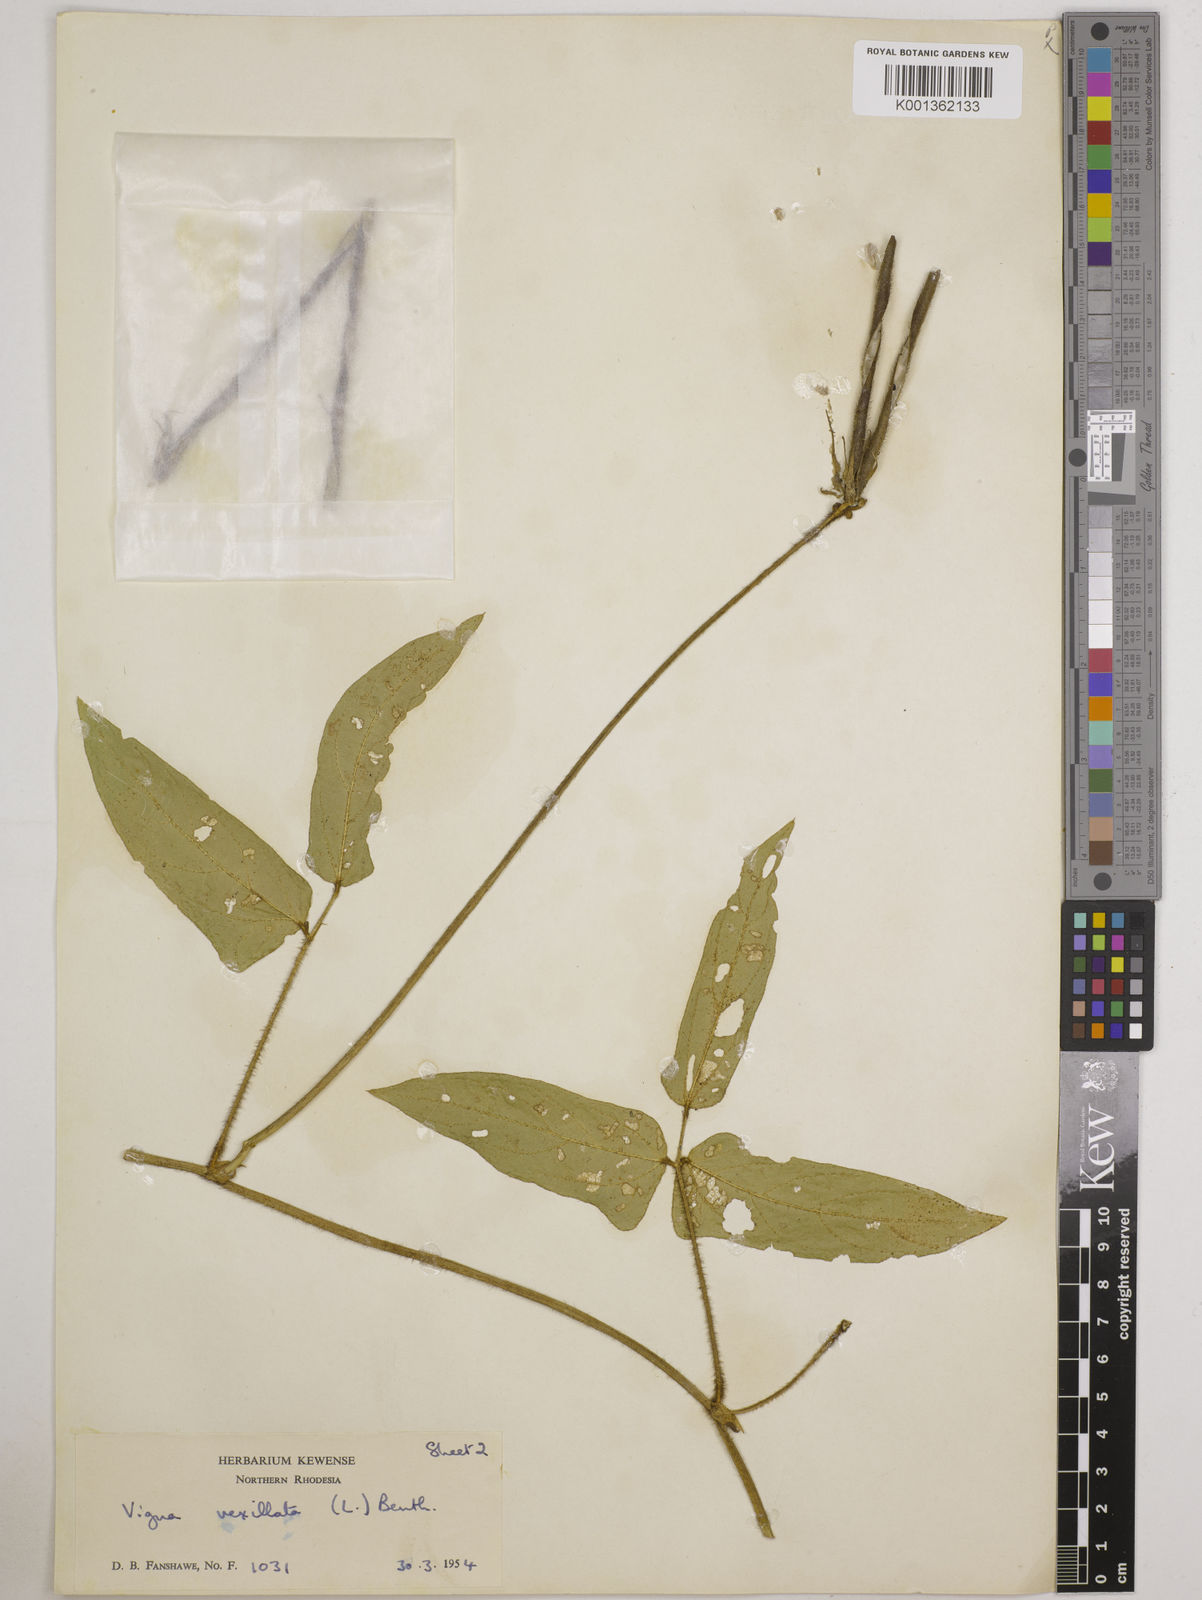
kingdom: Plantae
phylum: Tracheophyta
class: Magnoliopsida
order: Fabales
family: Fabaceae
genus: Vigna
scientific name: Vigna vexillata
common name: Zombi pea
